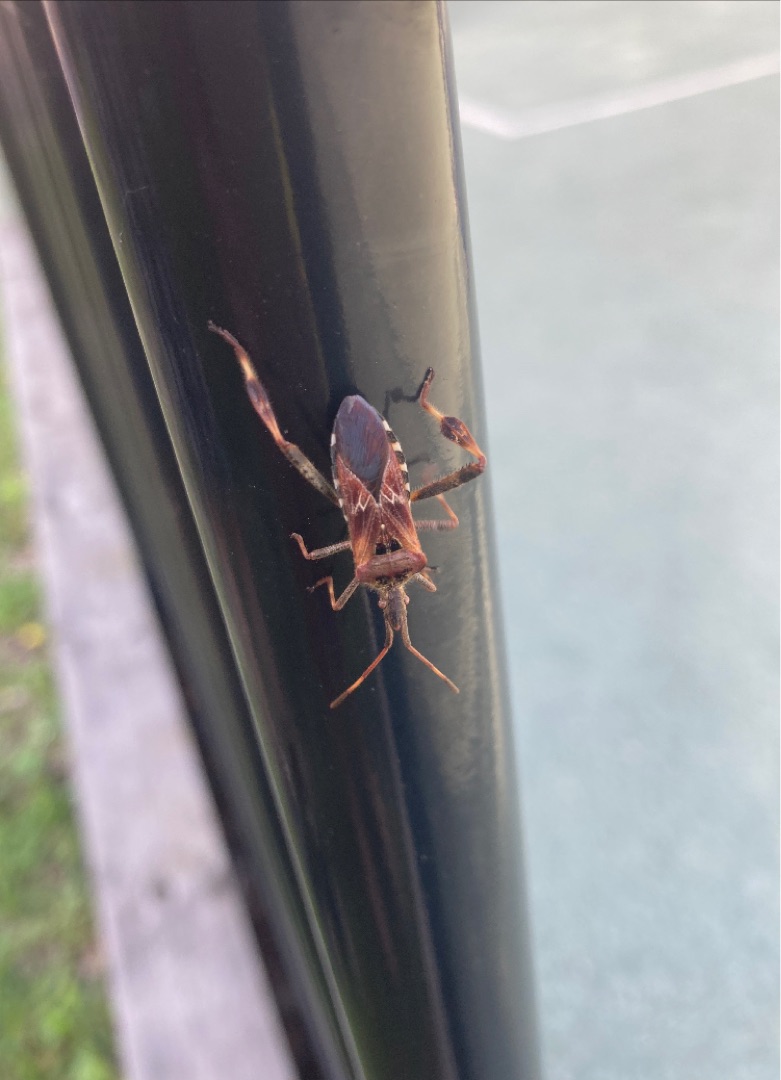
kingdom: Animalia
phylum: Arthropoda
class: Insecta
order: Hemiptera
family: Coreidae
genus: Leptoglossus
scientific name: Leptoglossus occidentalis
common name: Amerikansk fyrretæge
